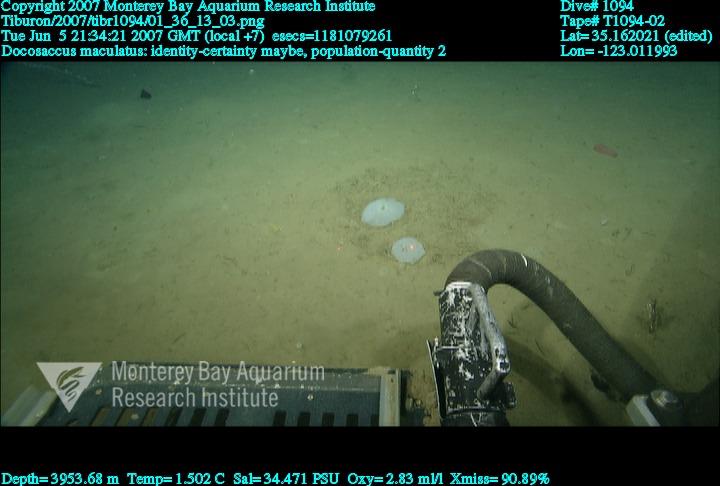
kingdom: Animalia
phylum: Porifera
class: Hexactinellida
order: Lyssacinosida
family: Euplectellidae
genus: Docosaccus
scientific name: Docosaccus maculatus
